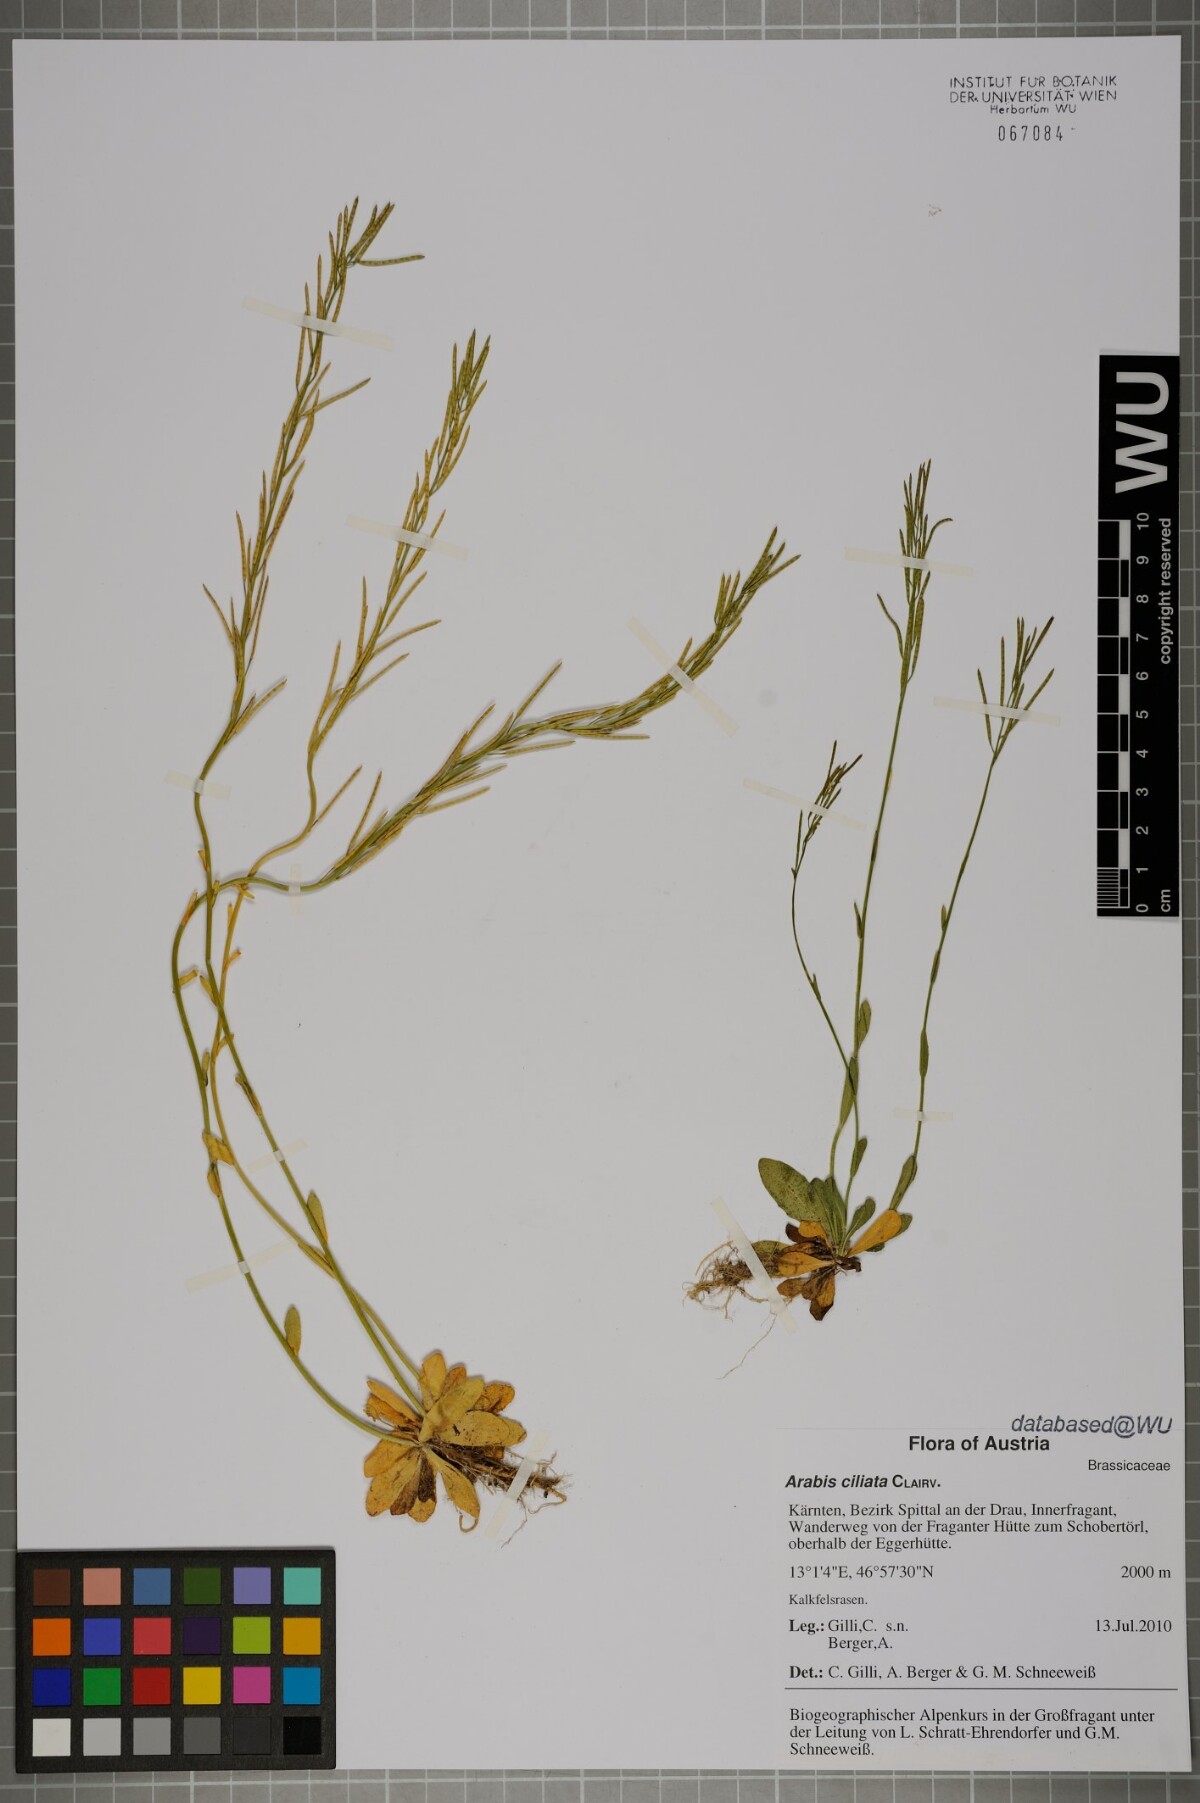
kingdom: Plantae
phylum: Tracheophyta
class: Magnoliopsida
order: Brassicales
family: Brassicaceae
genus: Arabis
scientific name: Arabis ciliata
